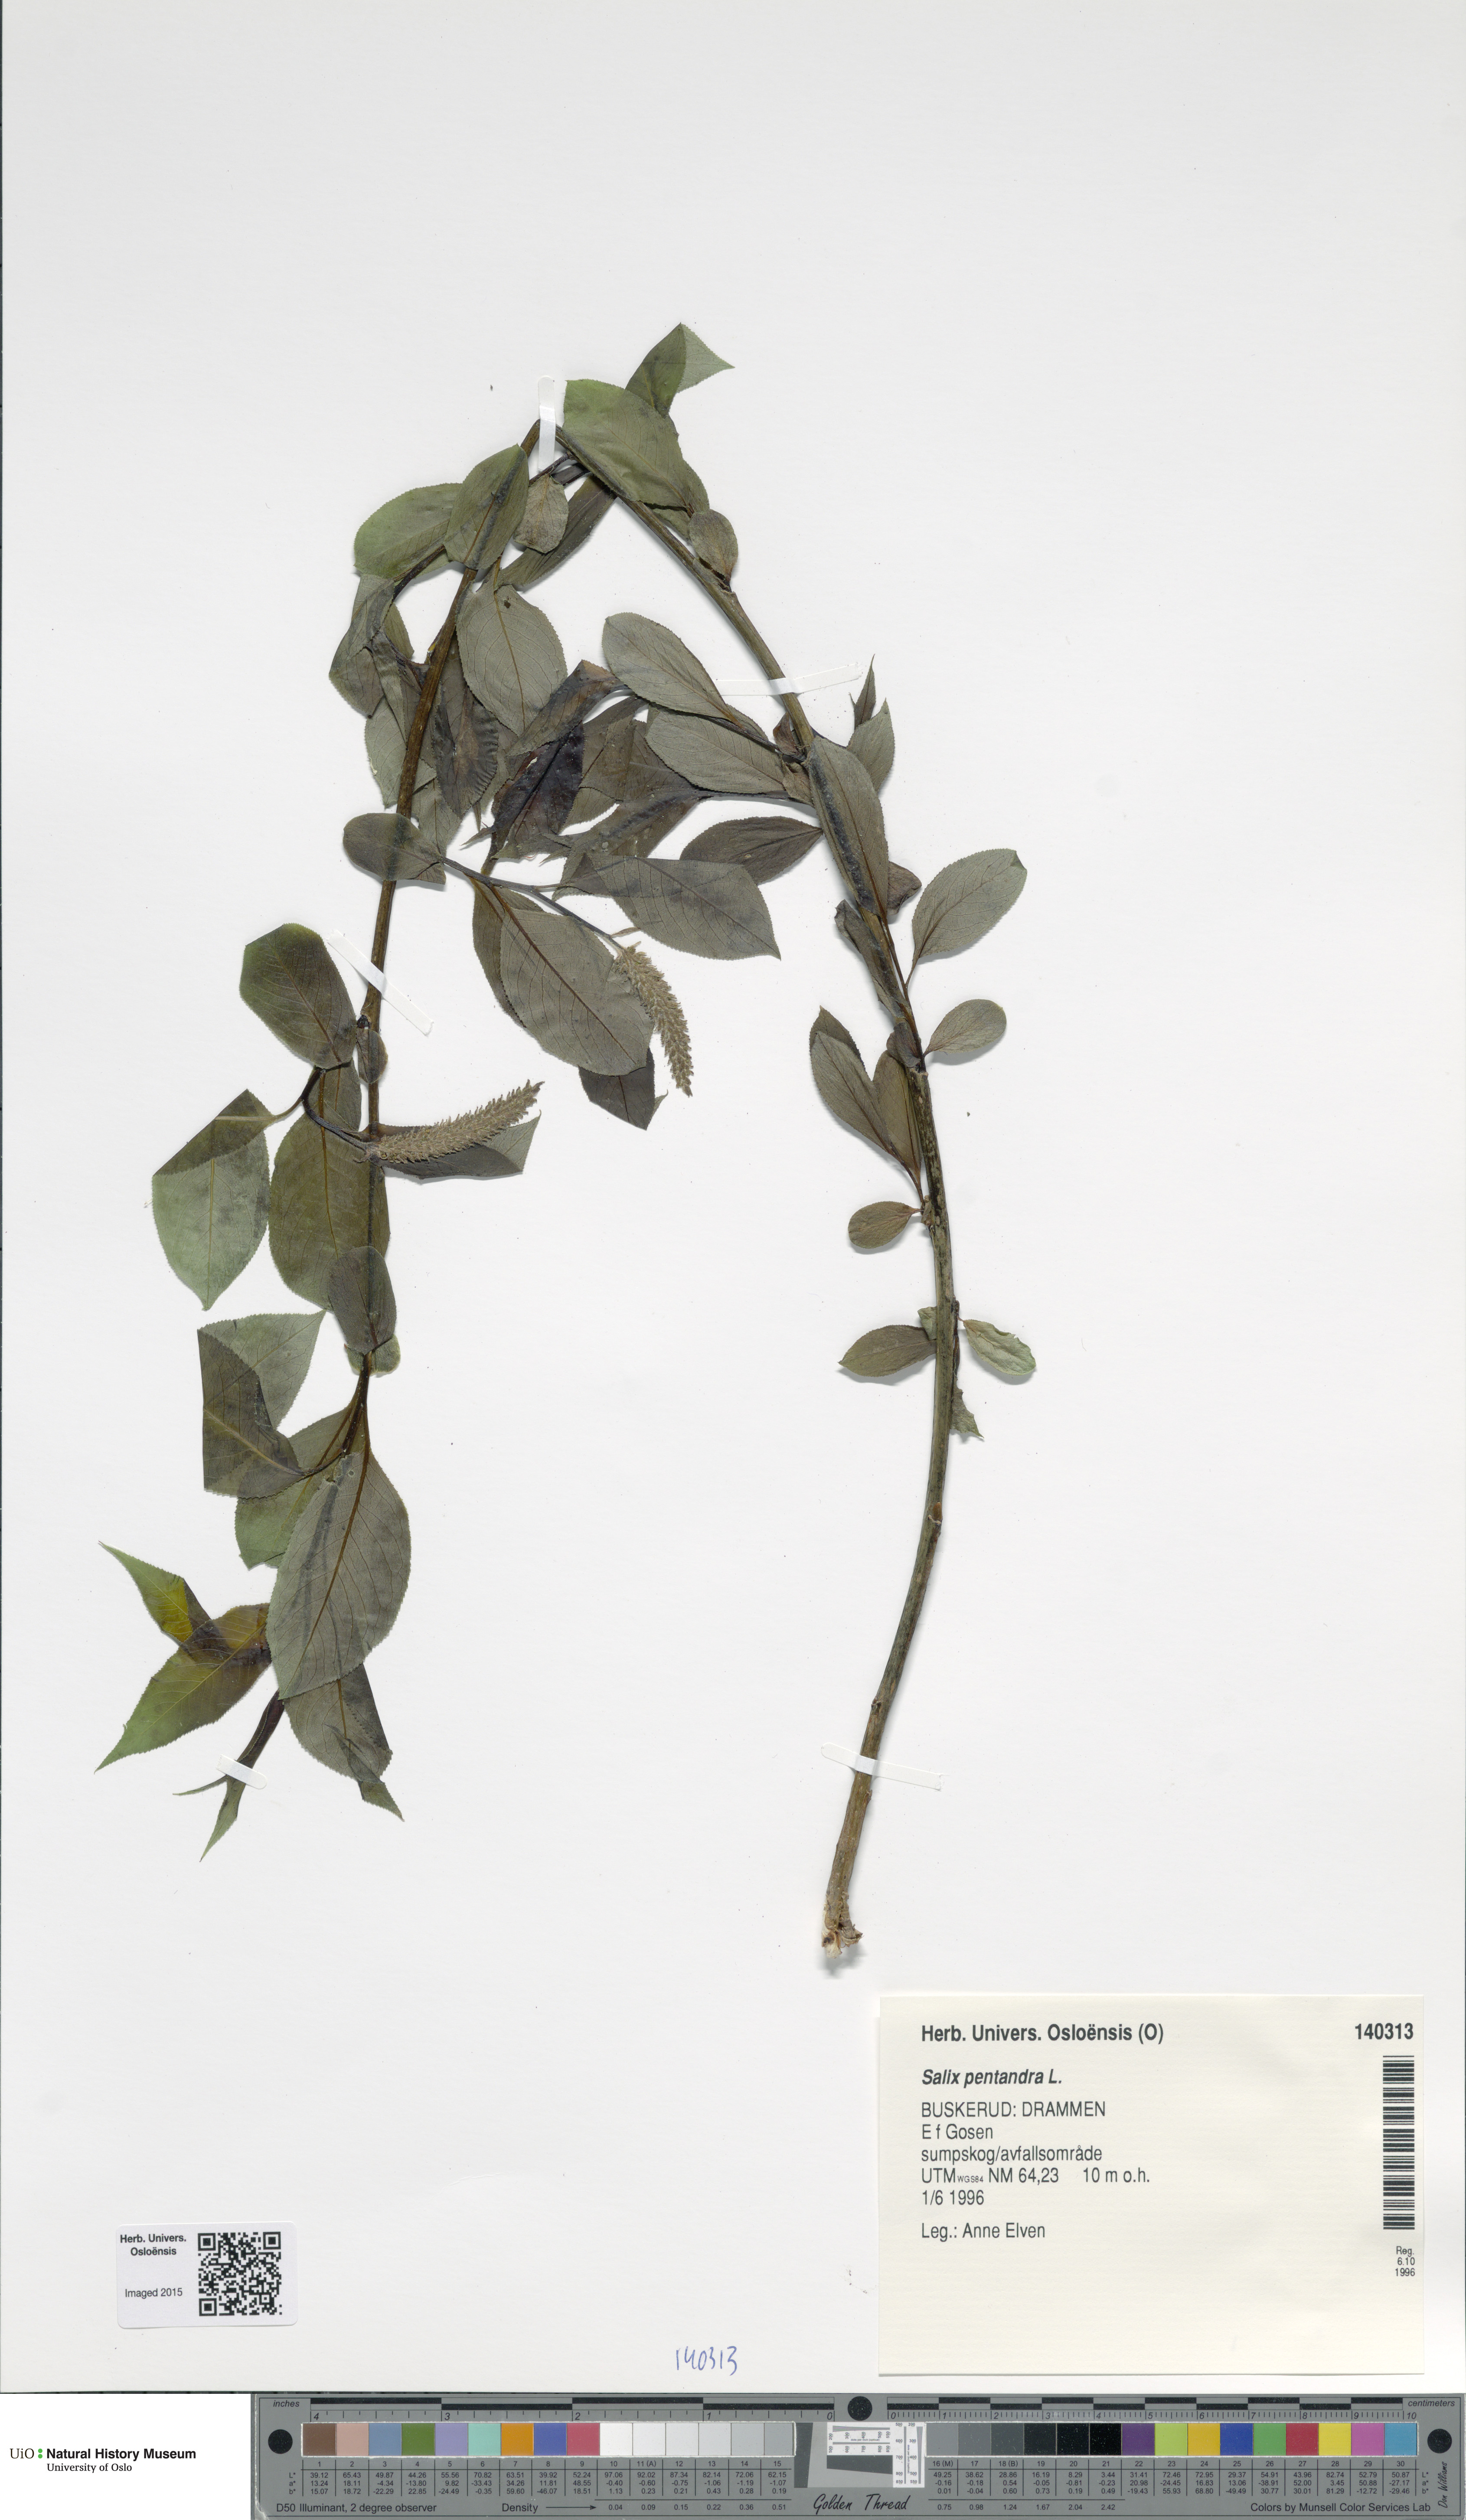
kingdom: Plantae
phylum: Tracheophyta
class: Magnoliopsida
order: Malpighiales
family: Salicaceae
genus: Salix
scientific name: Salix pentandra
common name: Bay willow
